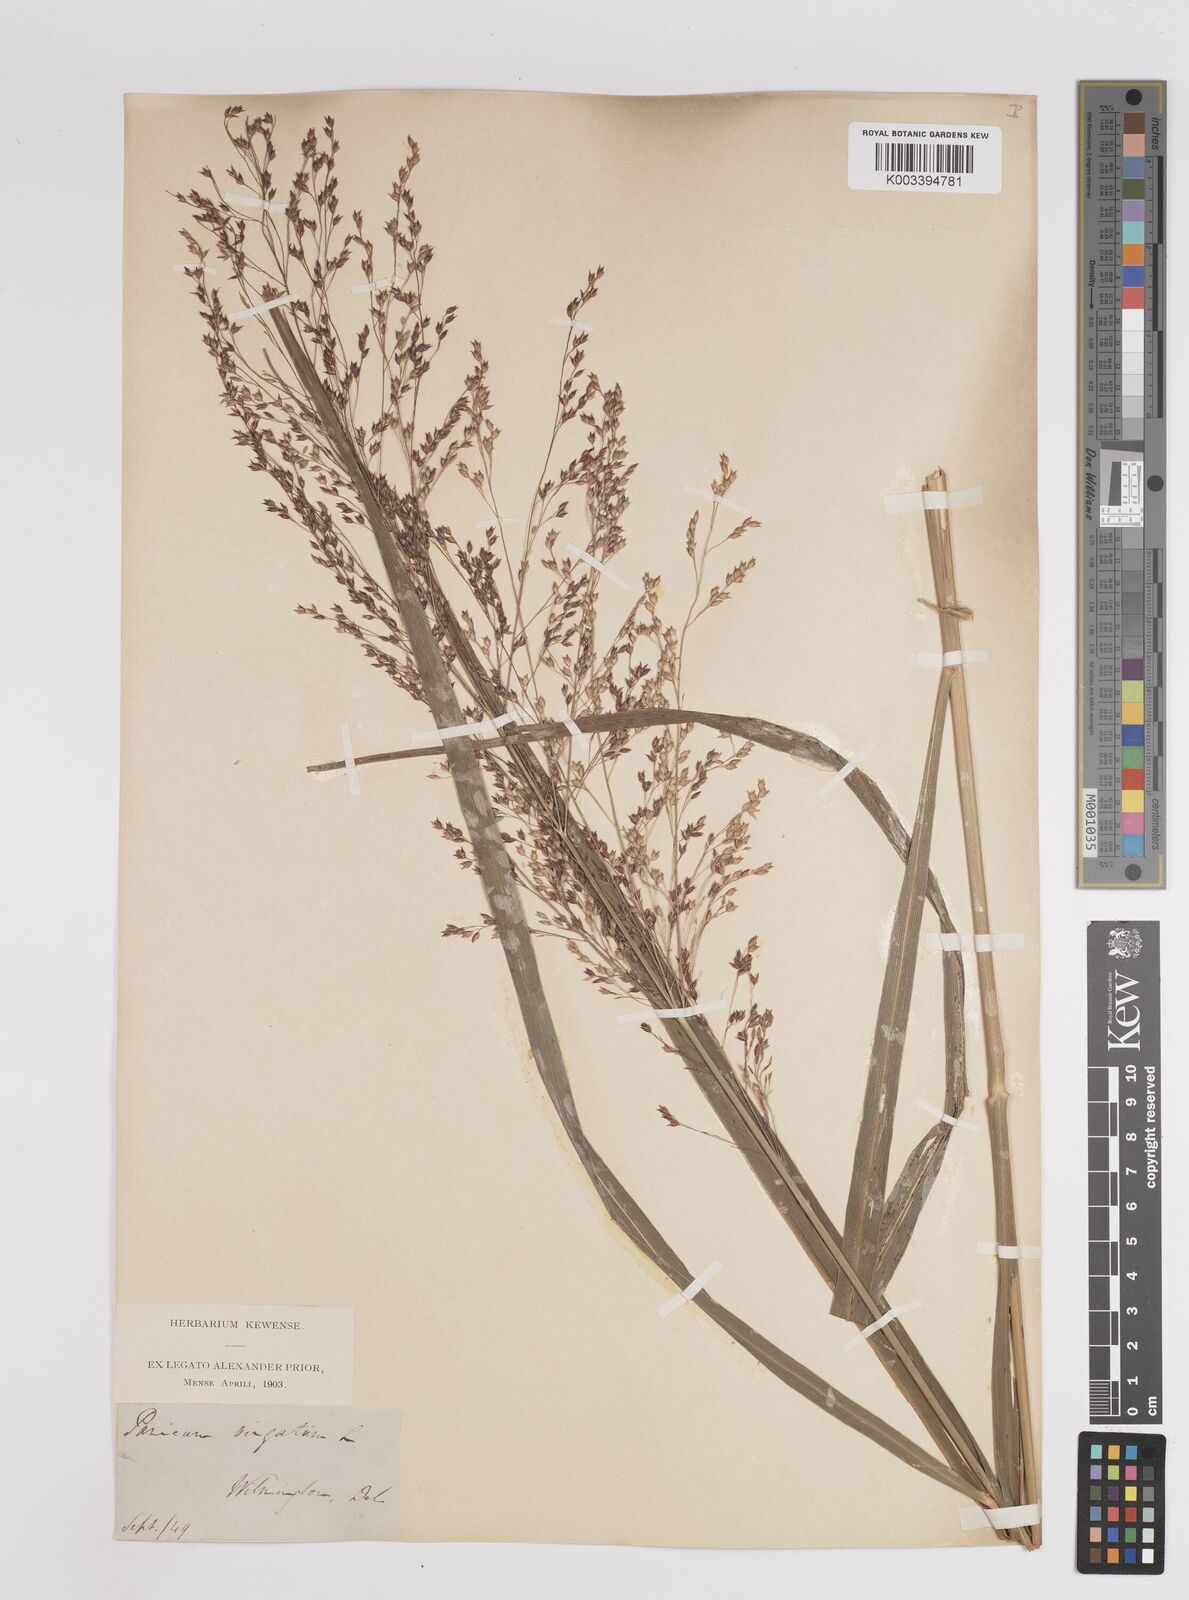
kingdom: Plantae
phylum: Tracheophyta
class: Liliopsida
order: Poales
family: Poaceae
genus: Panicum
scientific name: Panicum virgatum
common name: Switchgrass
